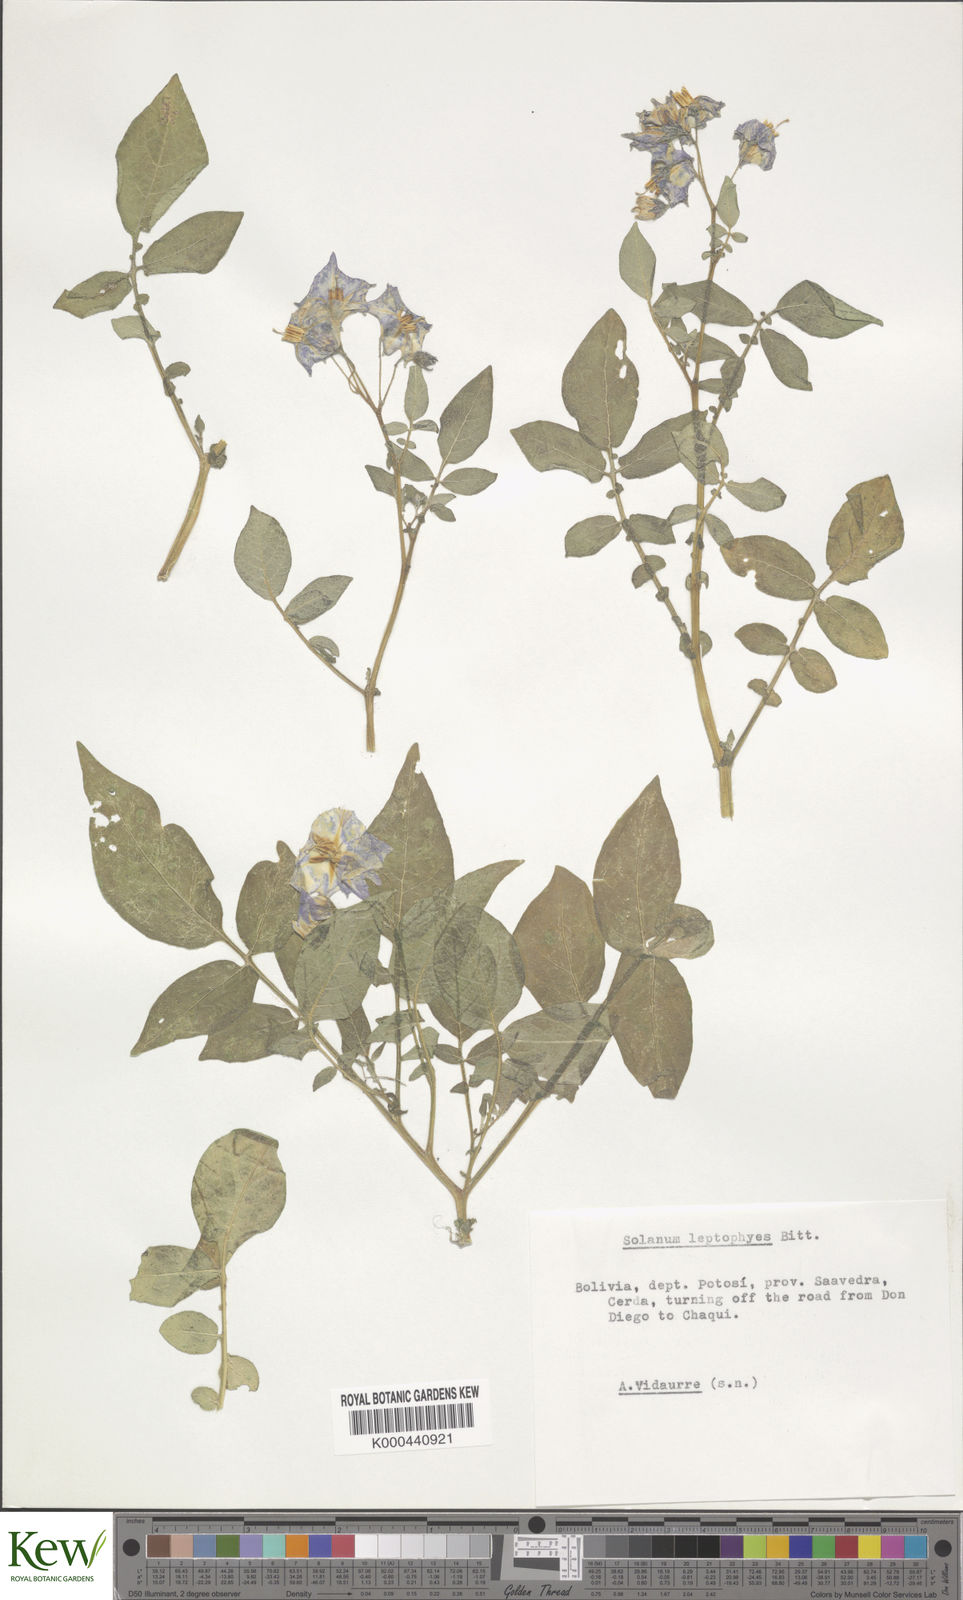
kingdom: Plantae
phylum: Tracheophyta
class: Magnoliopsida
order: Solanales
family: Solanaceae
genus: Solanum
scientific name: Solanum brevicaule
